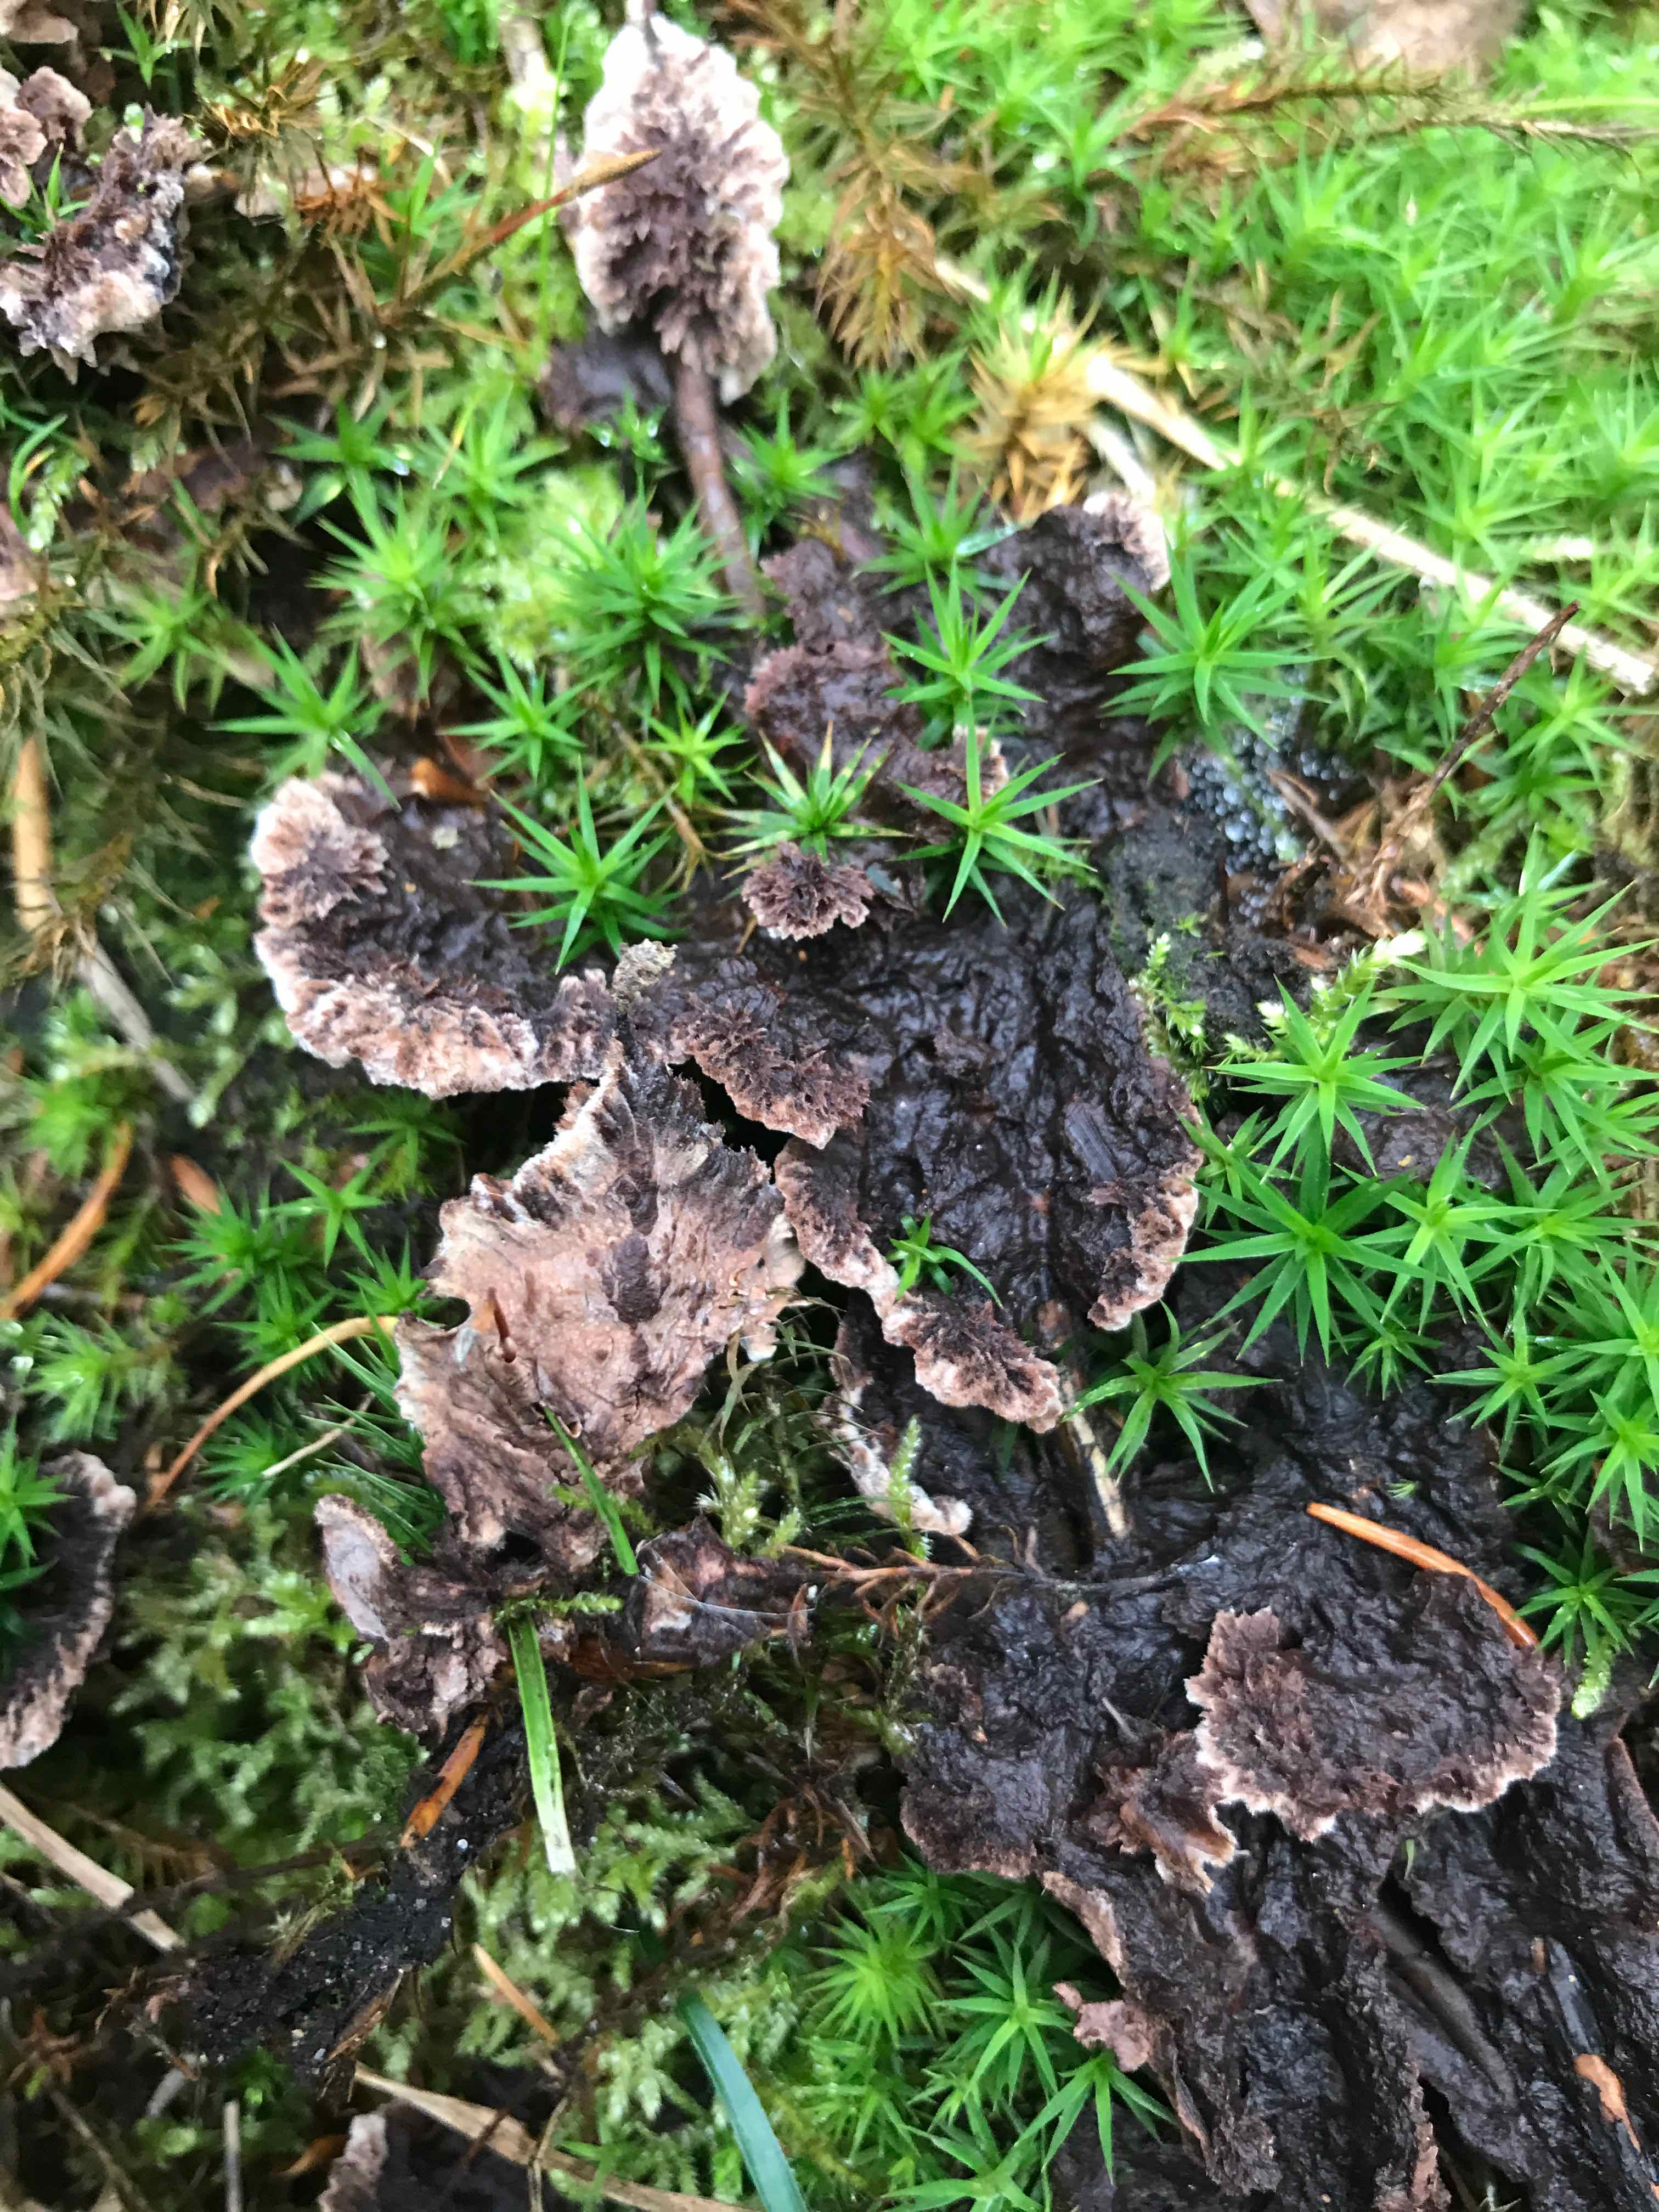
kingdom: Fungi
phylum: Basidiomycota
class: Agaricomycetes
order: Thelephorales
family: Thelephoraceae
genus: Thelephora
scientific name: Thelephora terrestris
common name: fliget frynsesvamp
